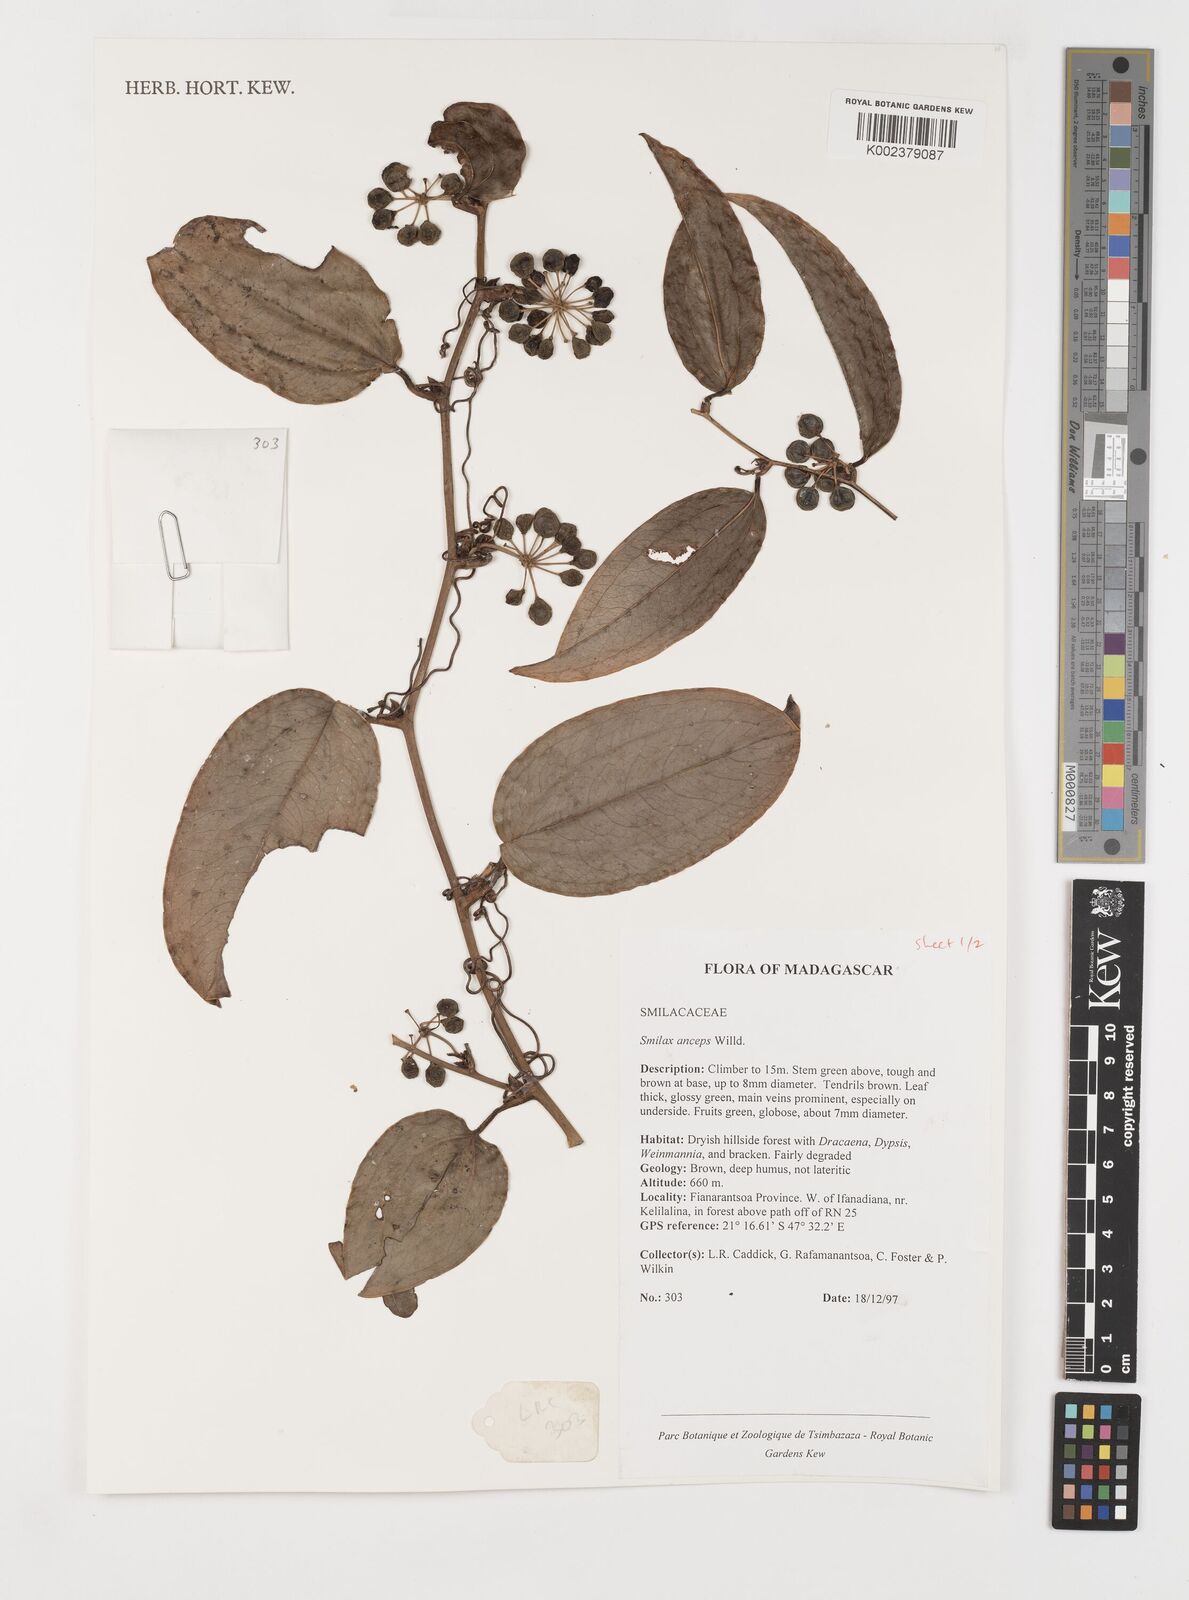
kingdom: Plantae
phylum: Tracheophyta
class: Liliopsida
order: Liliales
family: Smilacaceae
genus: Smilax
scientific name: Smilax anceps
